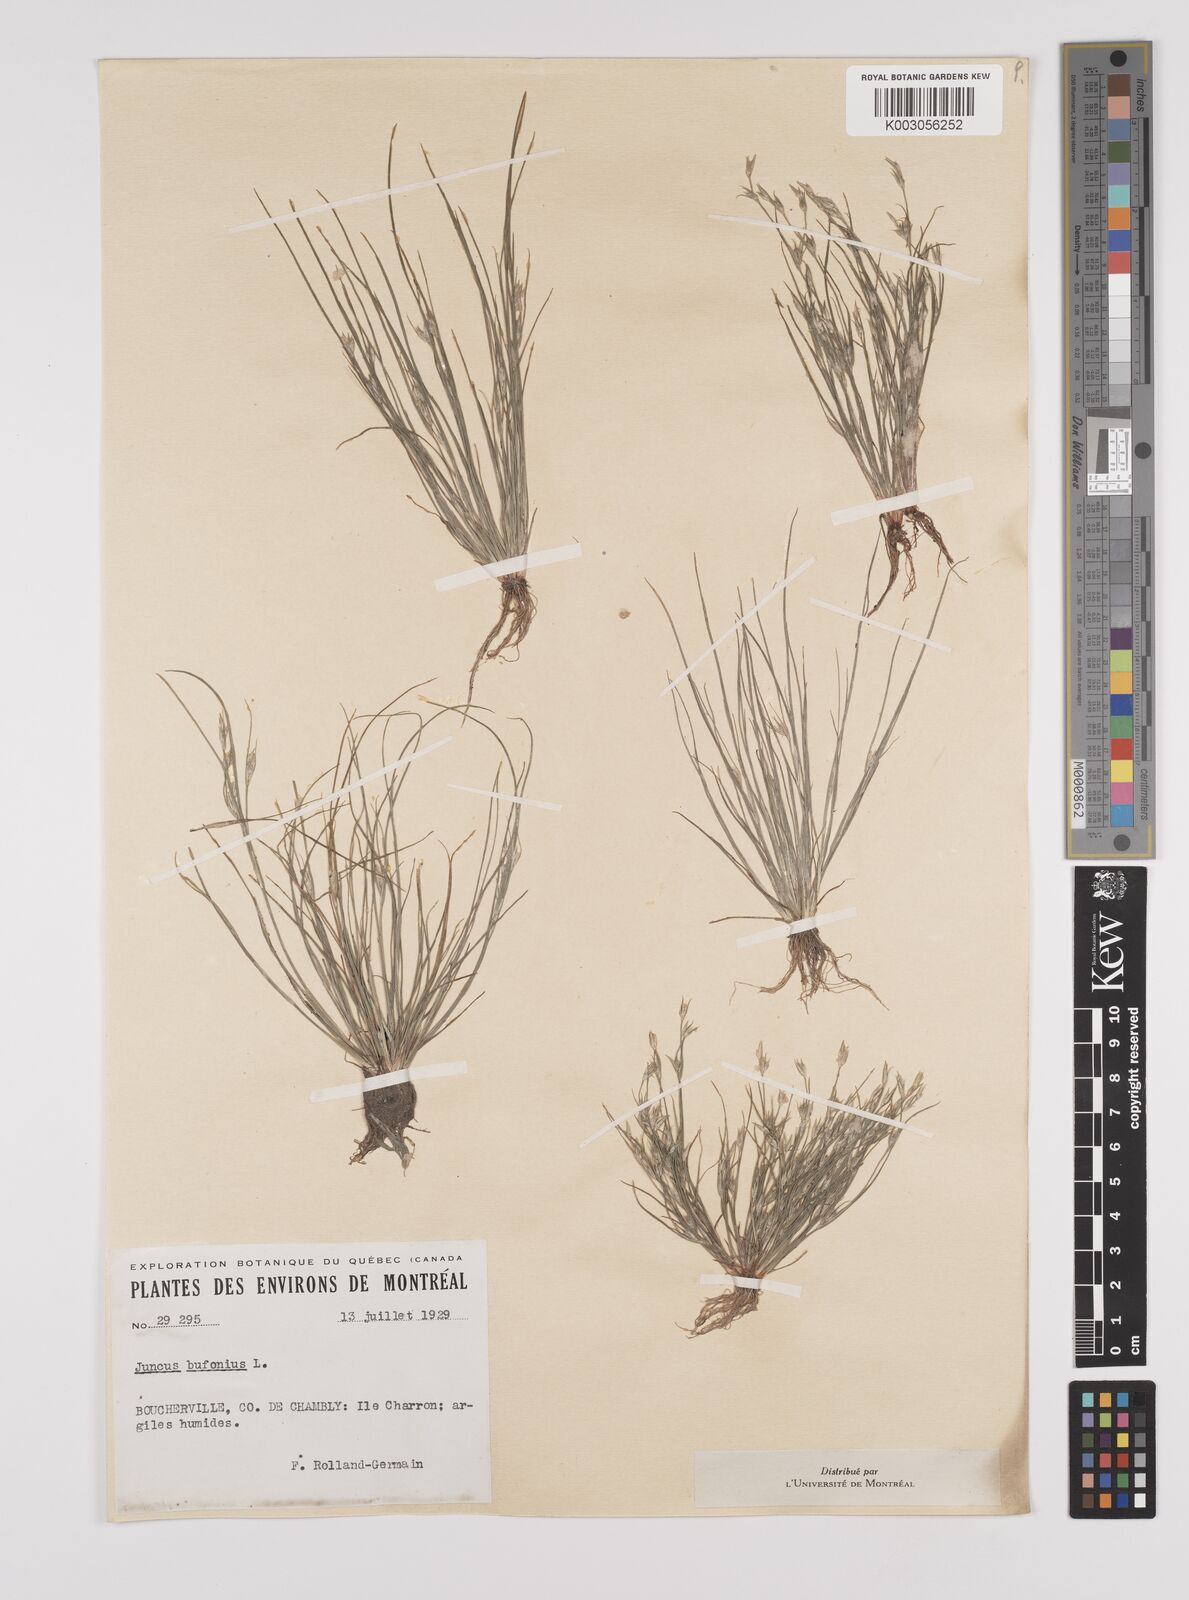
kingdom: Plantae
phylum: Tracheophyta
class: Liliopsida
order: Poales
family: Juncaceae
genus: Juncus
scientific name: Juncus bufonius
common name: Toad rush
